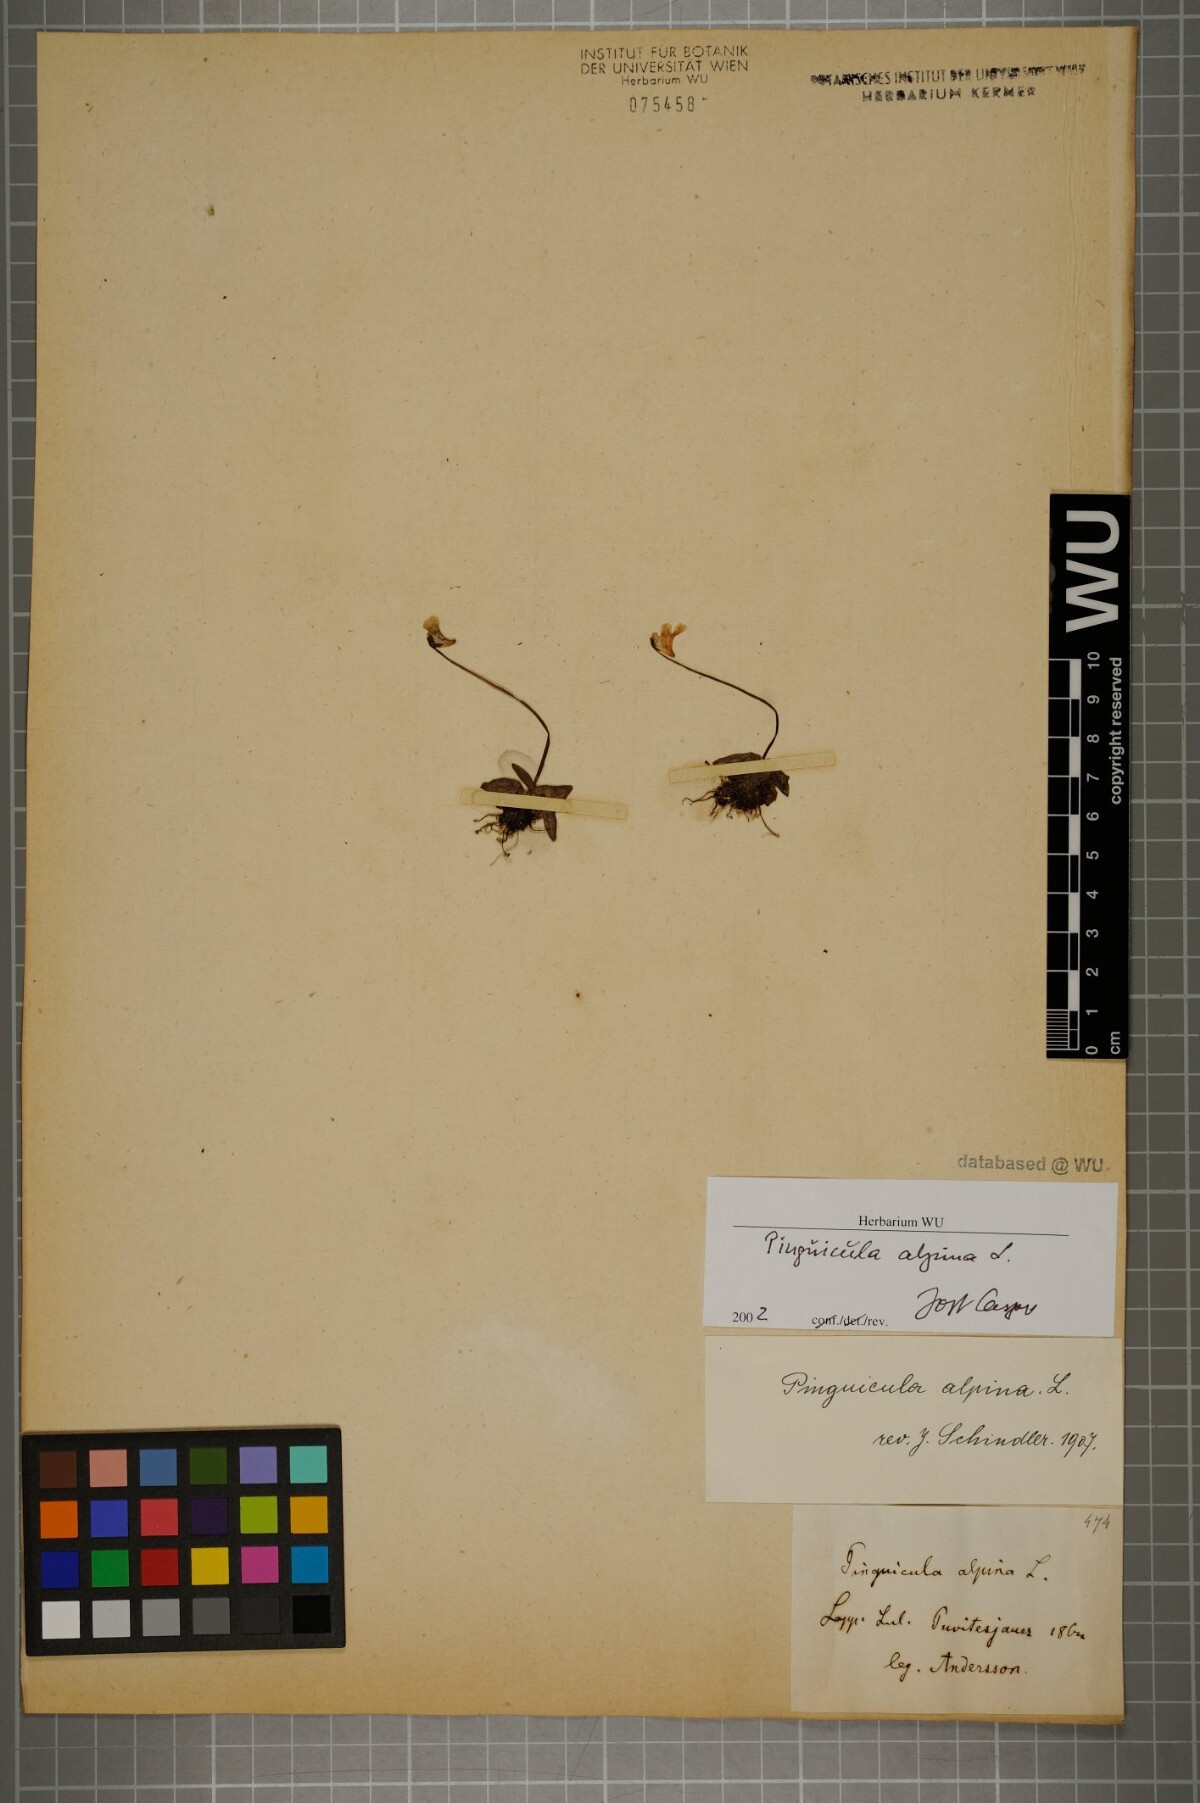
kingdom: Plantae
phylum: Tracheophyta
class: Magnoliopsida
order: Lamiales
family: Lentibulariaceae
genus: Pinguicula
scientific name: Pinguicula alpina
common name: Alpine butterwort
